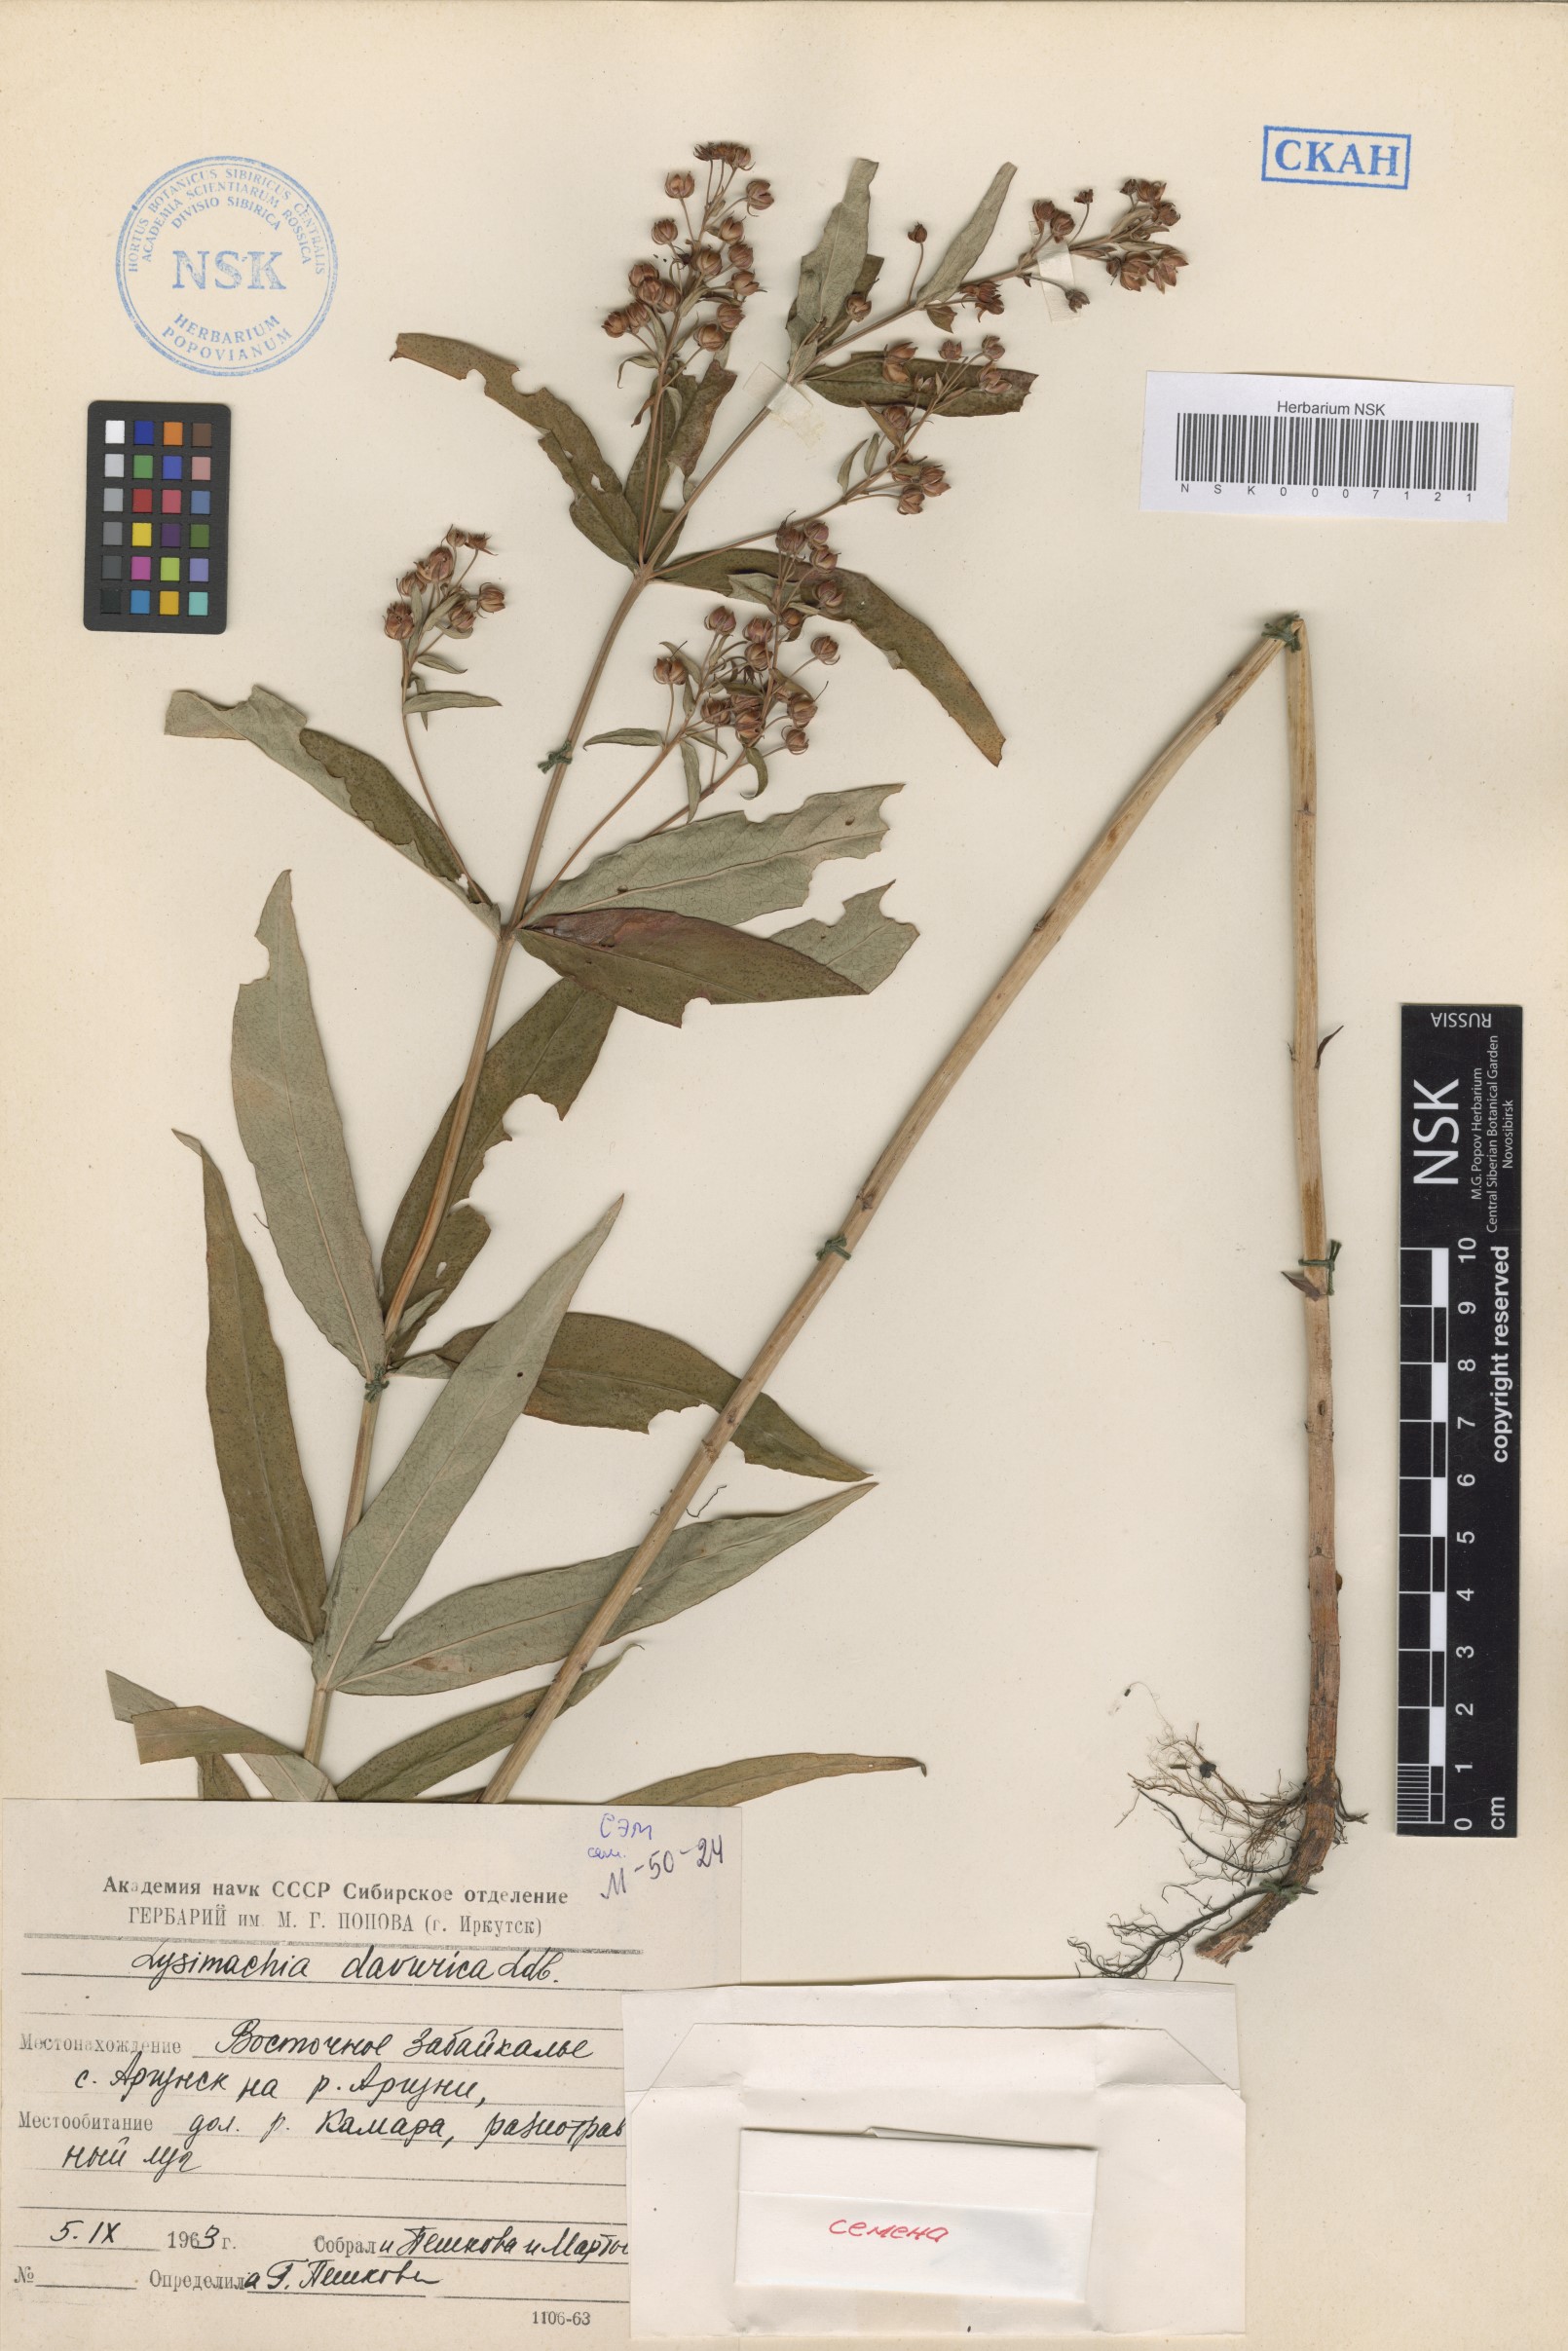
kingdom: Plantae
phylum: Tracheophyta
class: Magnoliopsida
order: Ericales
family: Primulaceae
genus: Lysimachia
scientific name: Lysimachia davurica
